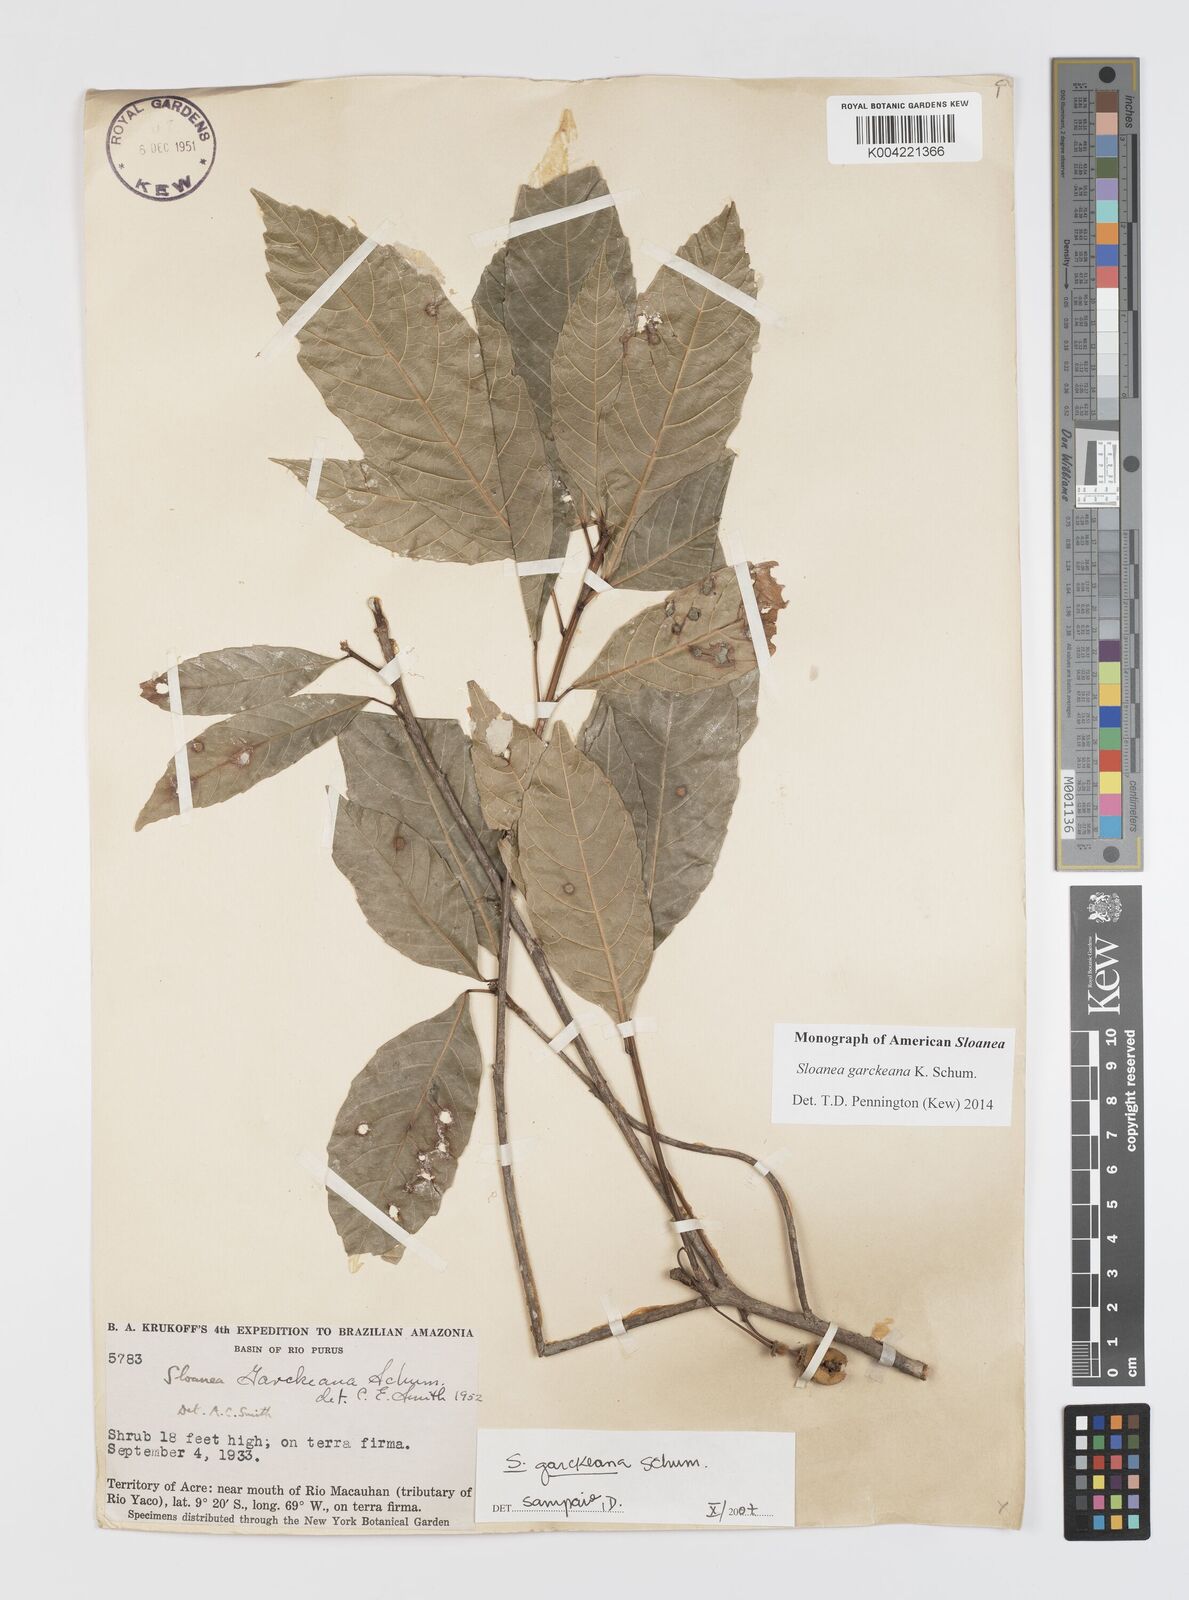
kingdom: Plantae
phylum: Tracheophyta
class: Magnoliopsida
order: Oxalidales
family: Elaeocarpaceae
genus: Sloanea
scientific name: Sloanea garckeana
